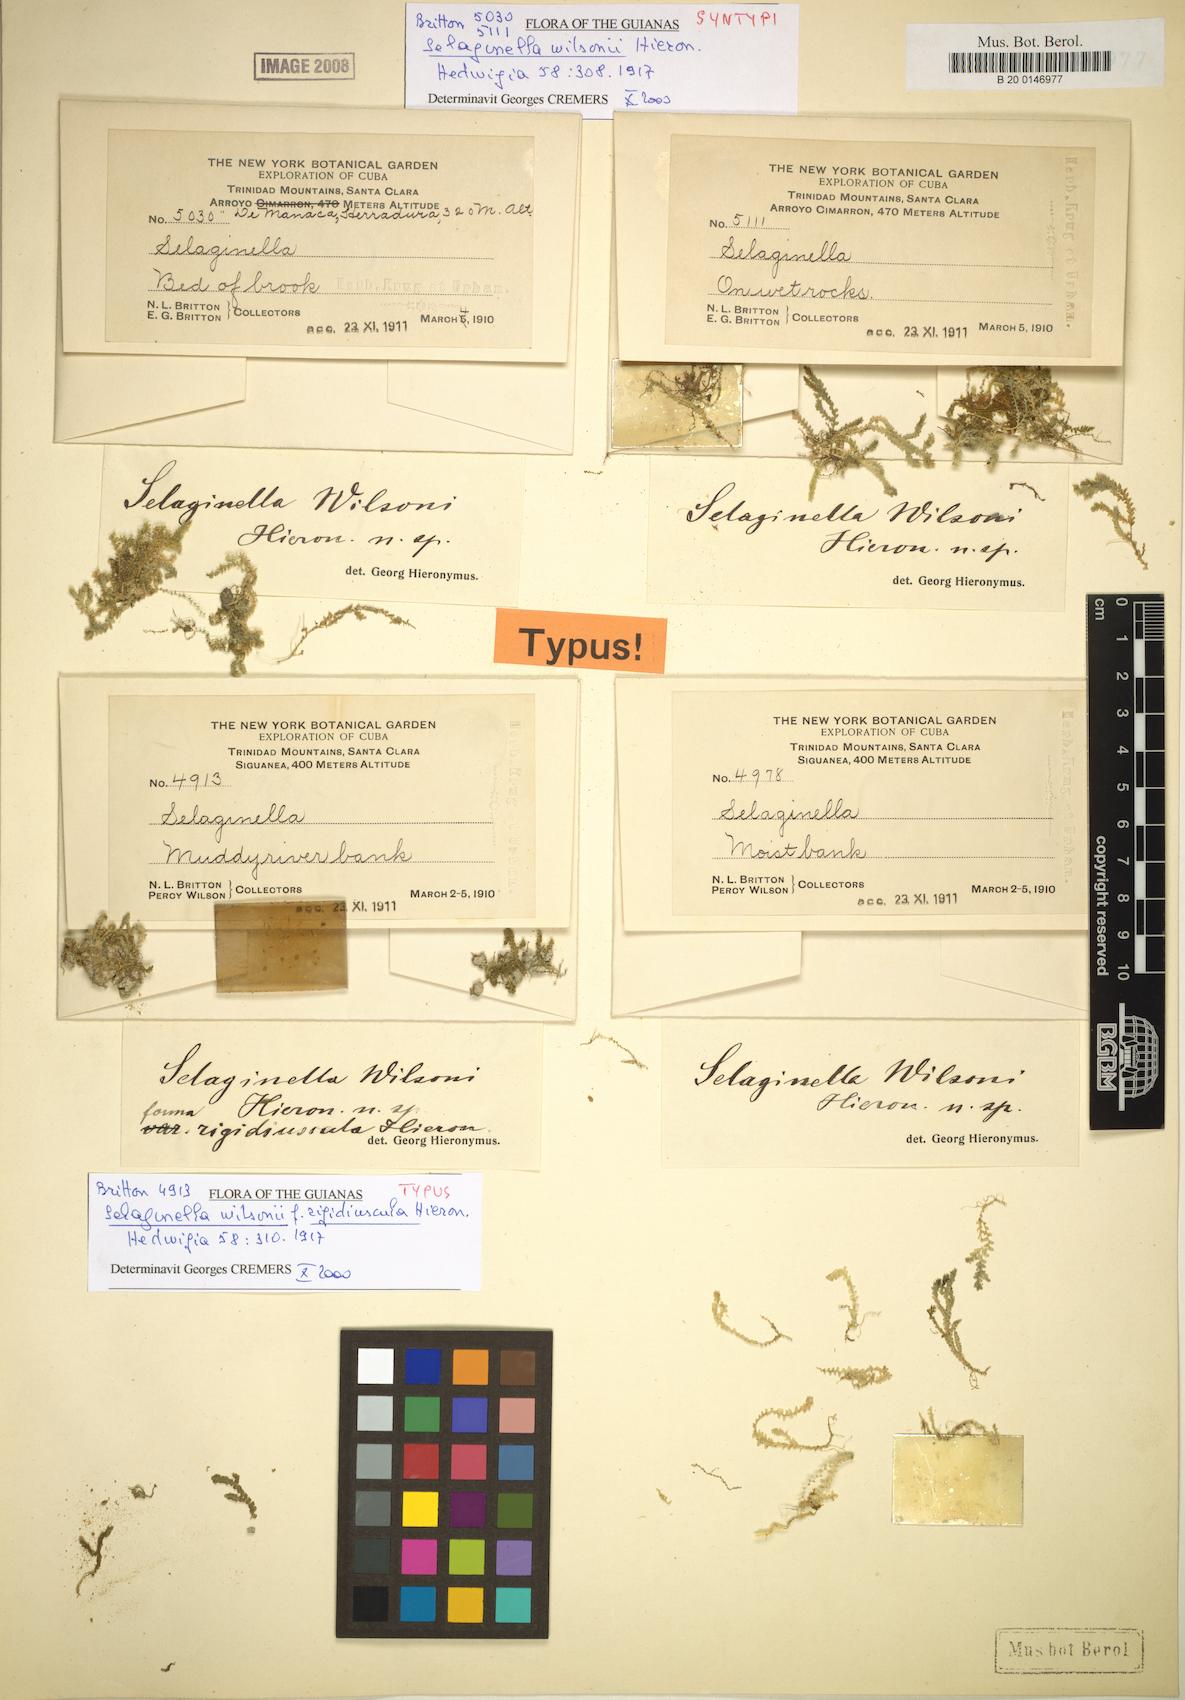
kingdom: Plantae
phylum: Tracheophyta
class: Lycopodiopsida
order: Selaginellales
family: Selaginellaceae
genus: Selaginella
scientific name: Selaginella confusa
